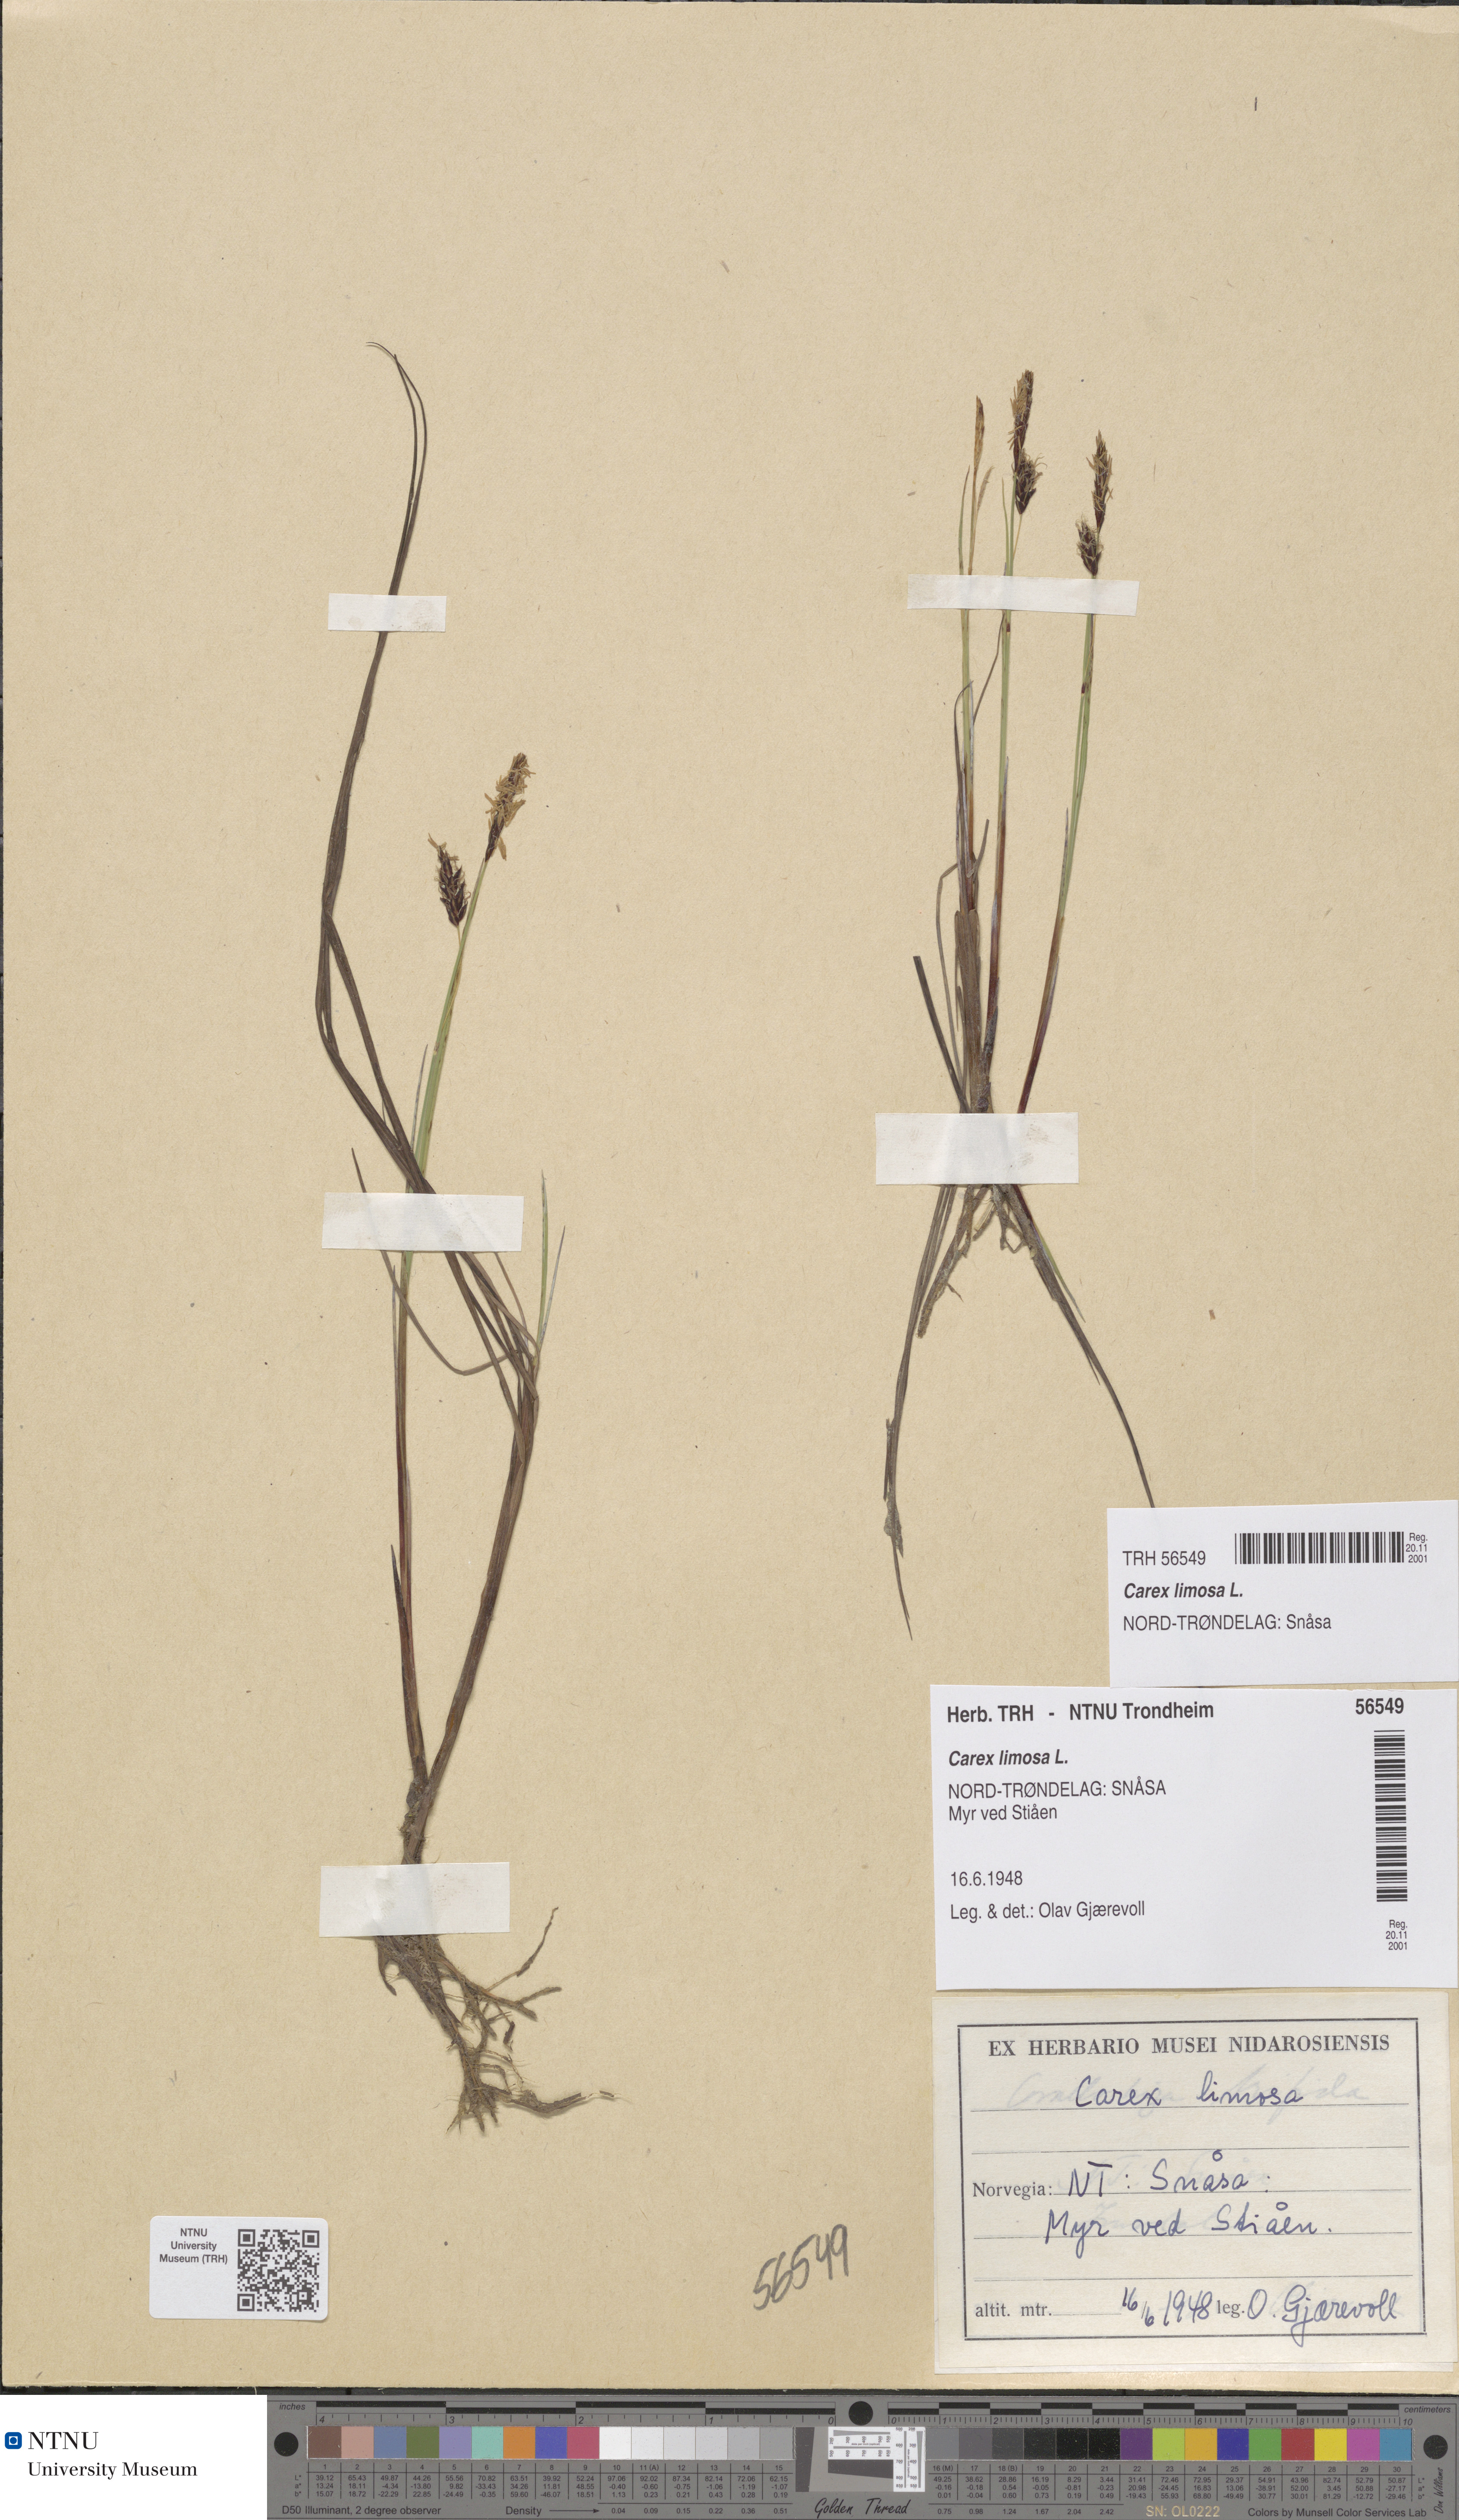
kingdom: Plantae
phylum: Tracheophyta
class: Liliopsida
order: Poales
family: Cyperaceae
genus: Carex
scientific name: Carex limosa
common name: Bog sedge
